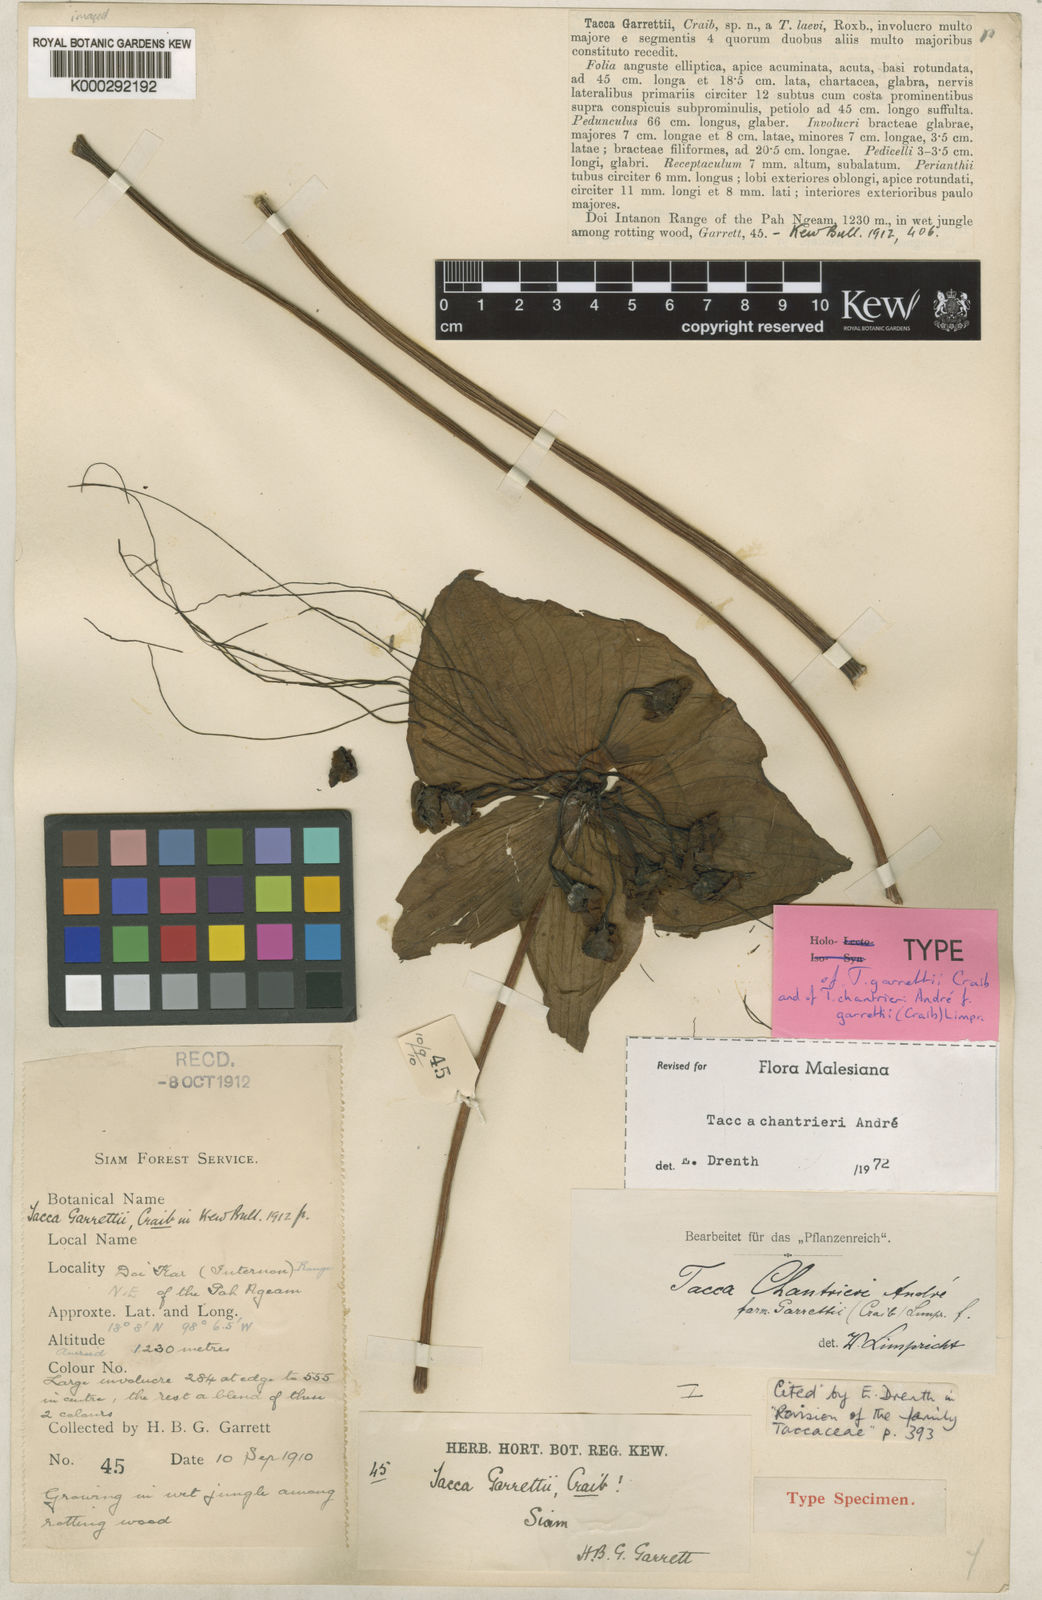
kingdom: Plantae
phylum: Tracheophyta
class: Liliopsida
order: Dioscoreales
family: Dioscoreaceae
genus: Tacca
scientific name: Tacca
